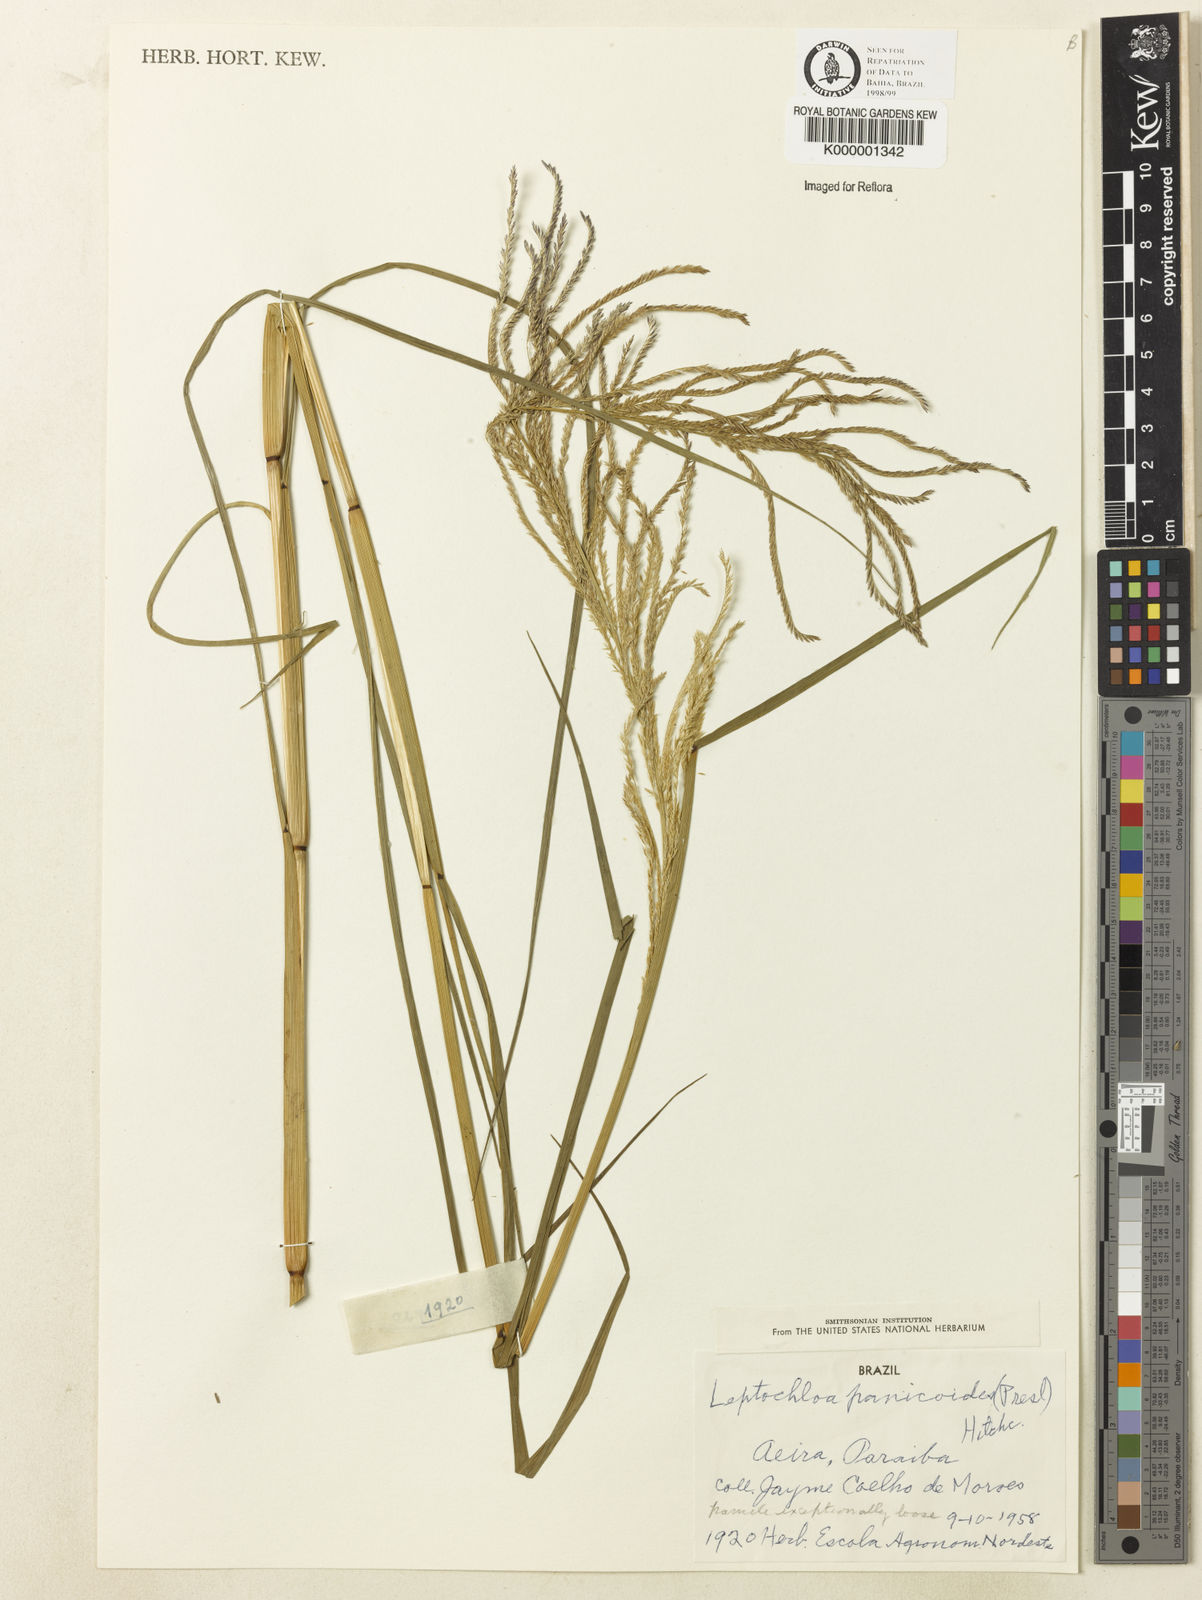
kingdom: Plantae
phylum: Tracheophyta
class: Liliopsida
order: Poales
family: Poaceae
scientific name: Poaceae
